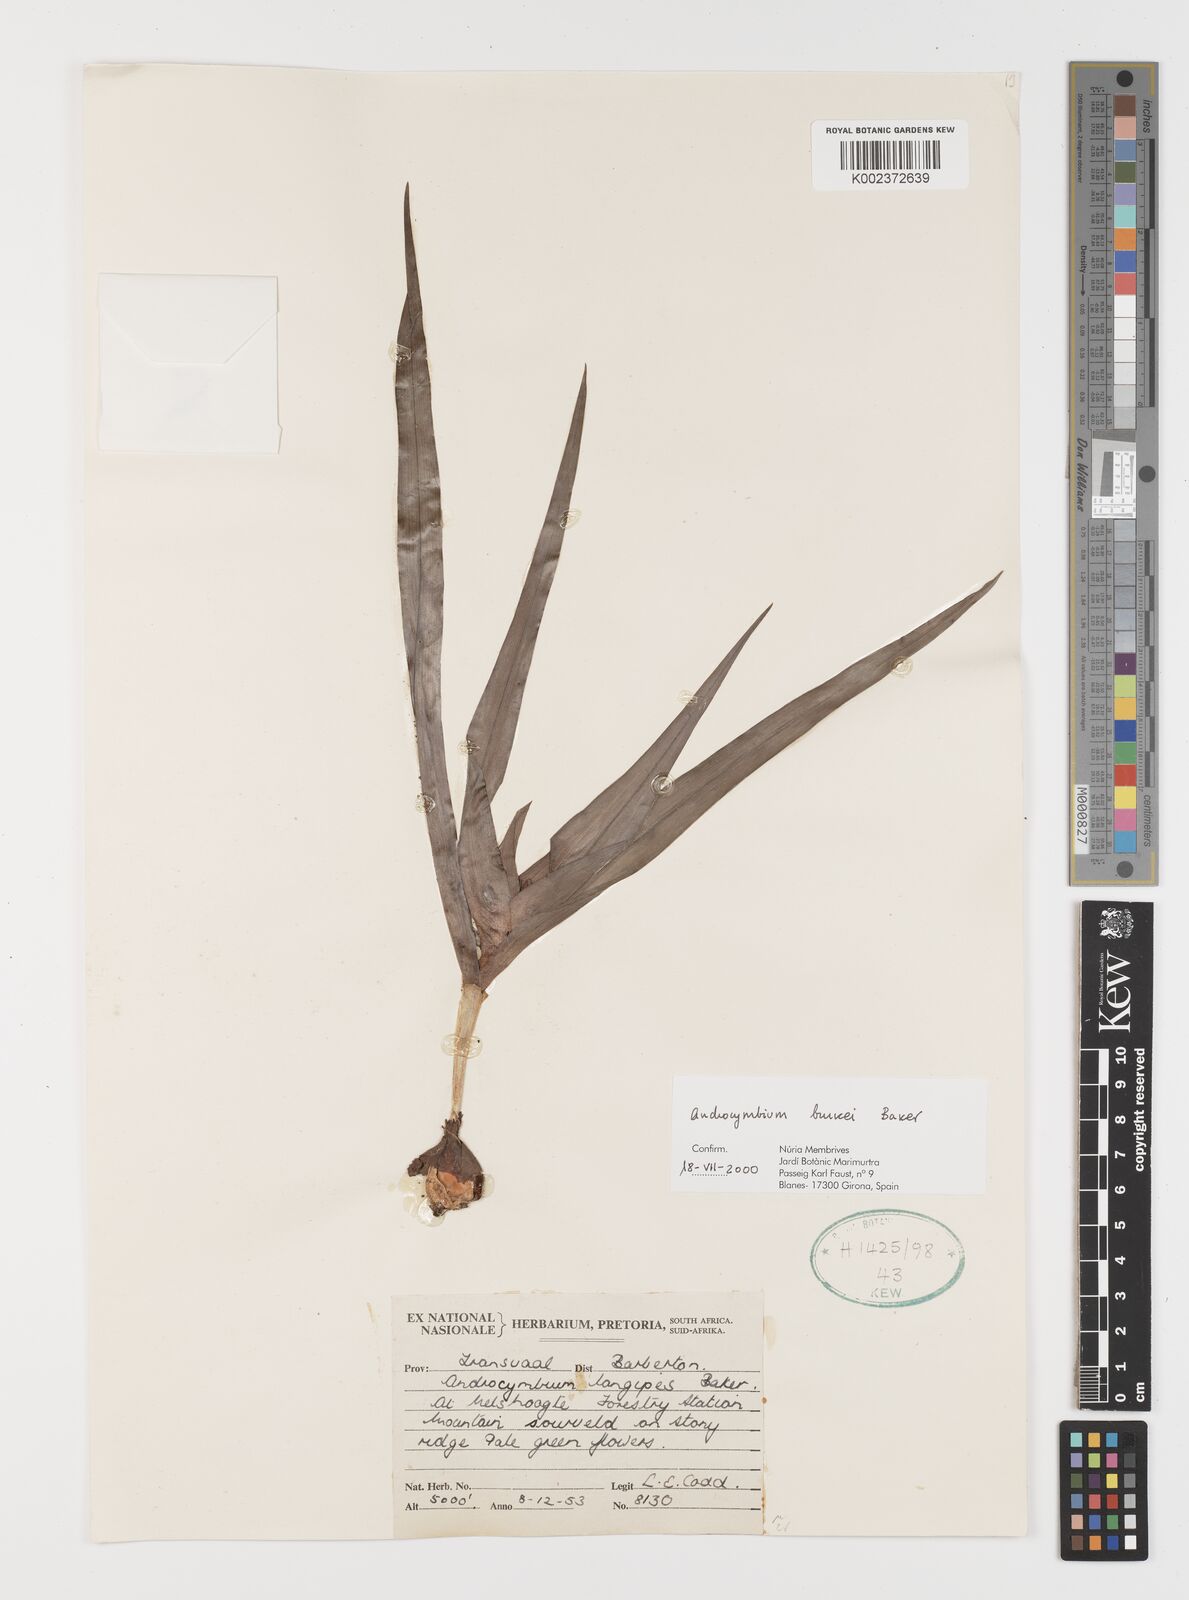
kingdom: Plantae
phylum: Tracheophyta
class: Liliopsida
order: Liliales
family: Colchicaceae
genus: Colchicum
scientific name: Colchicum burkei
